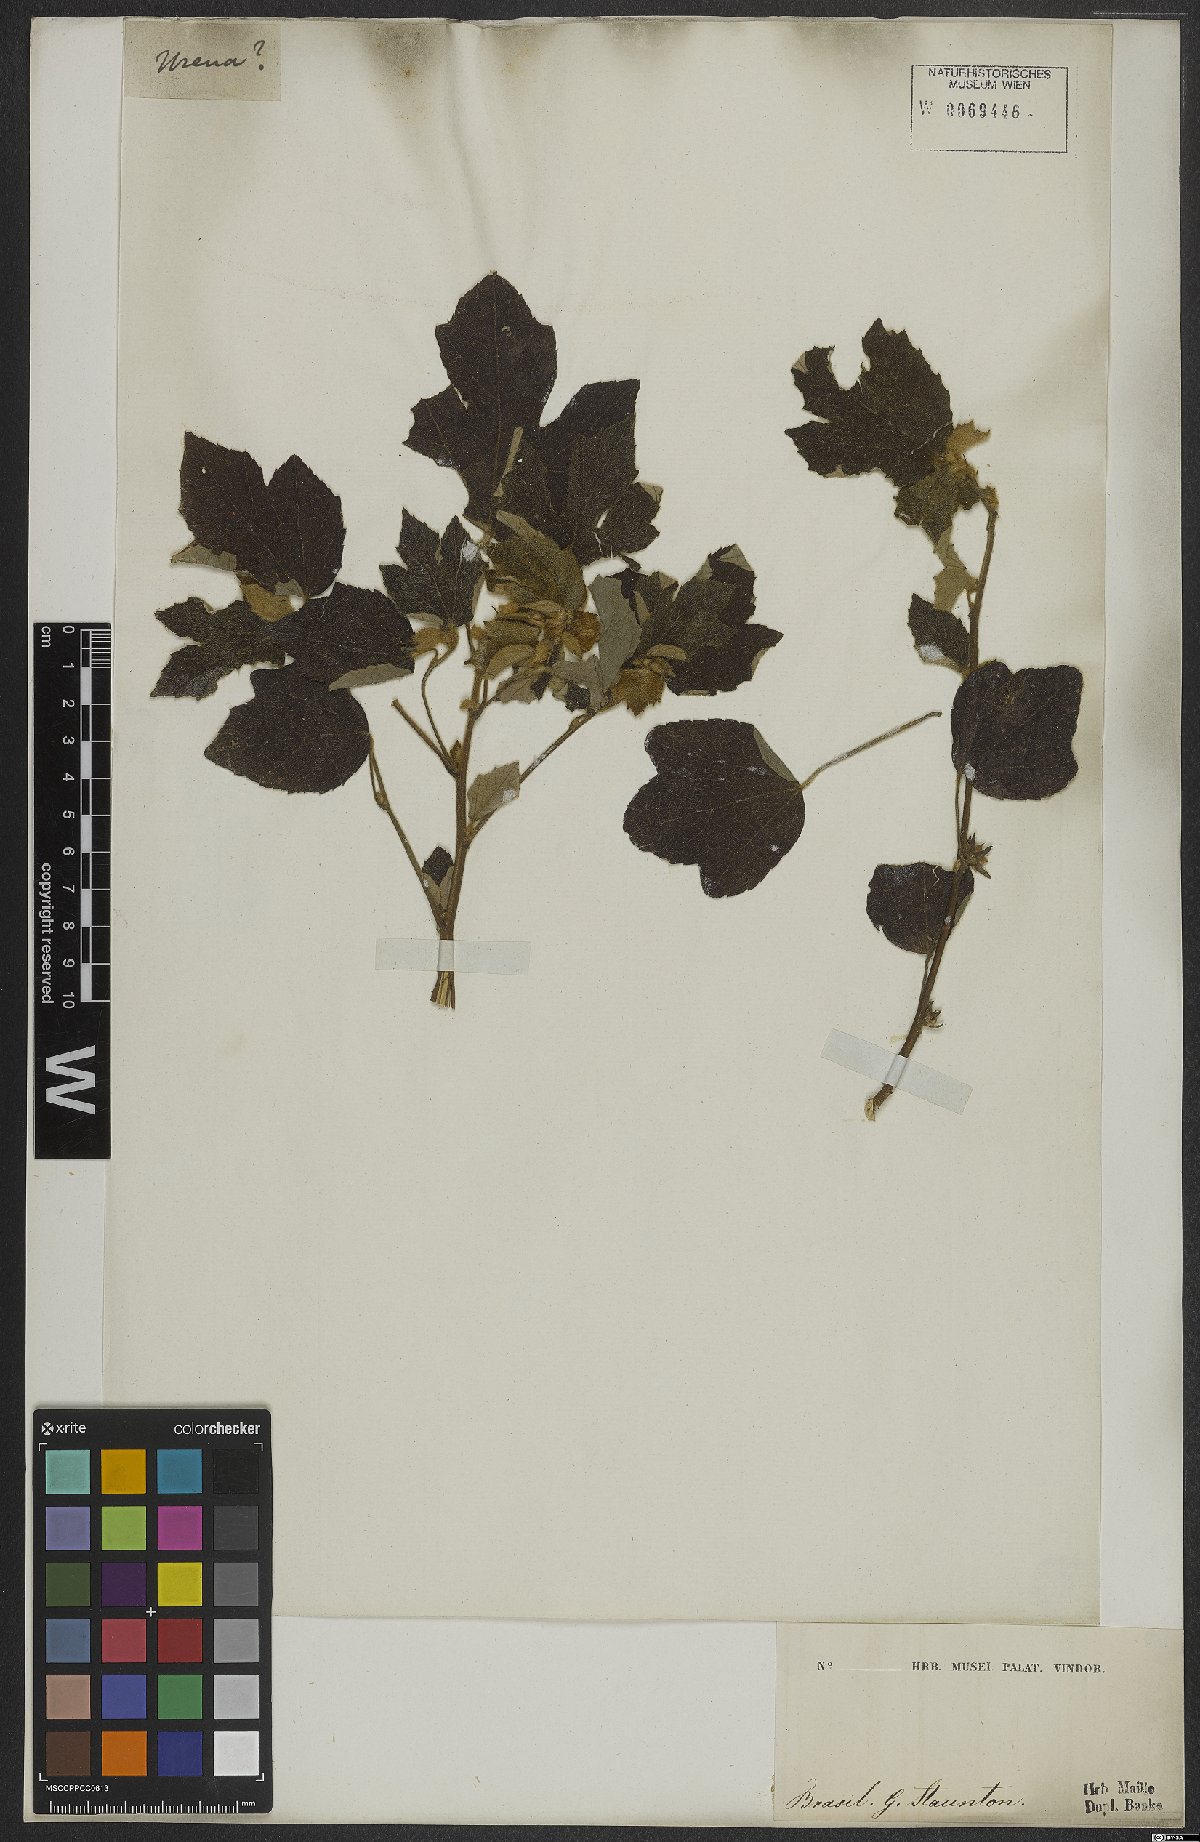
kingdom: Plantae
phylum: Tracheophyta
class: Magnoliopsida
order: Malvales
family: Malvaceae
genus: Urena
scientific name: Urena lobata
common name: Caesarweed
